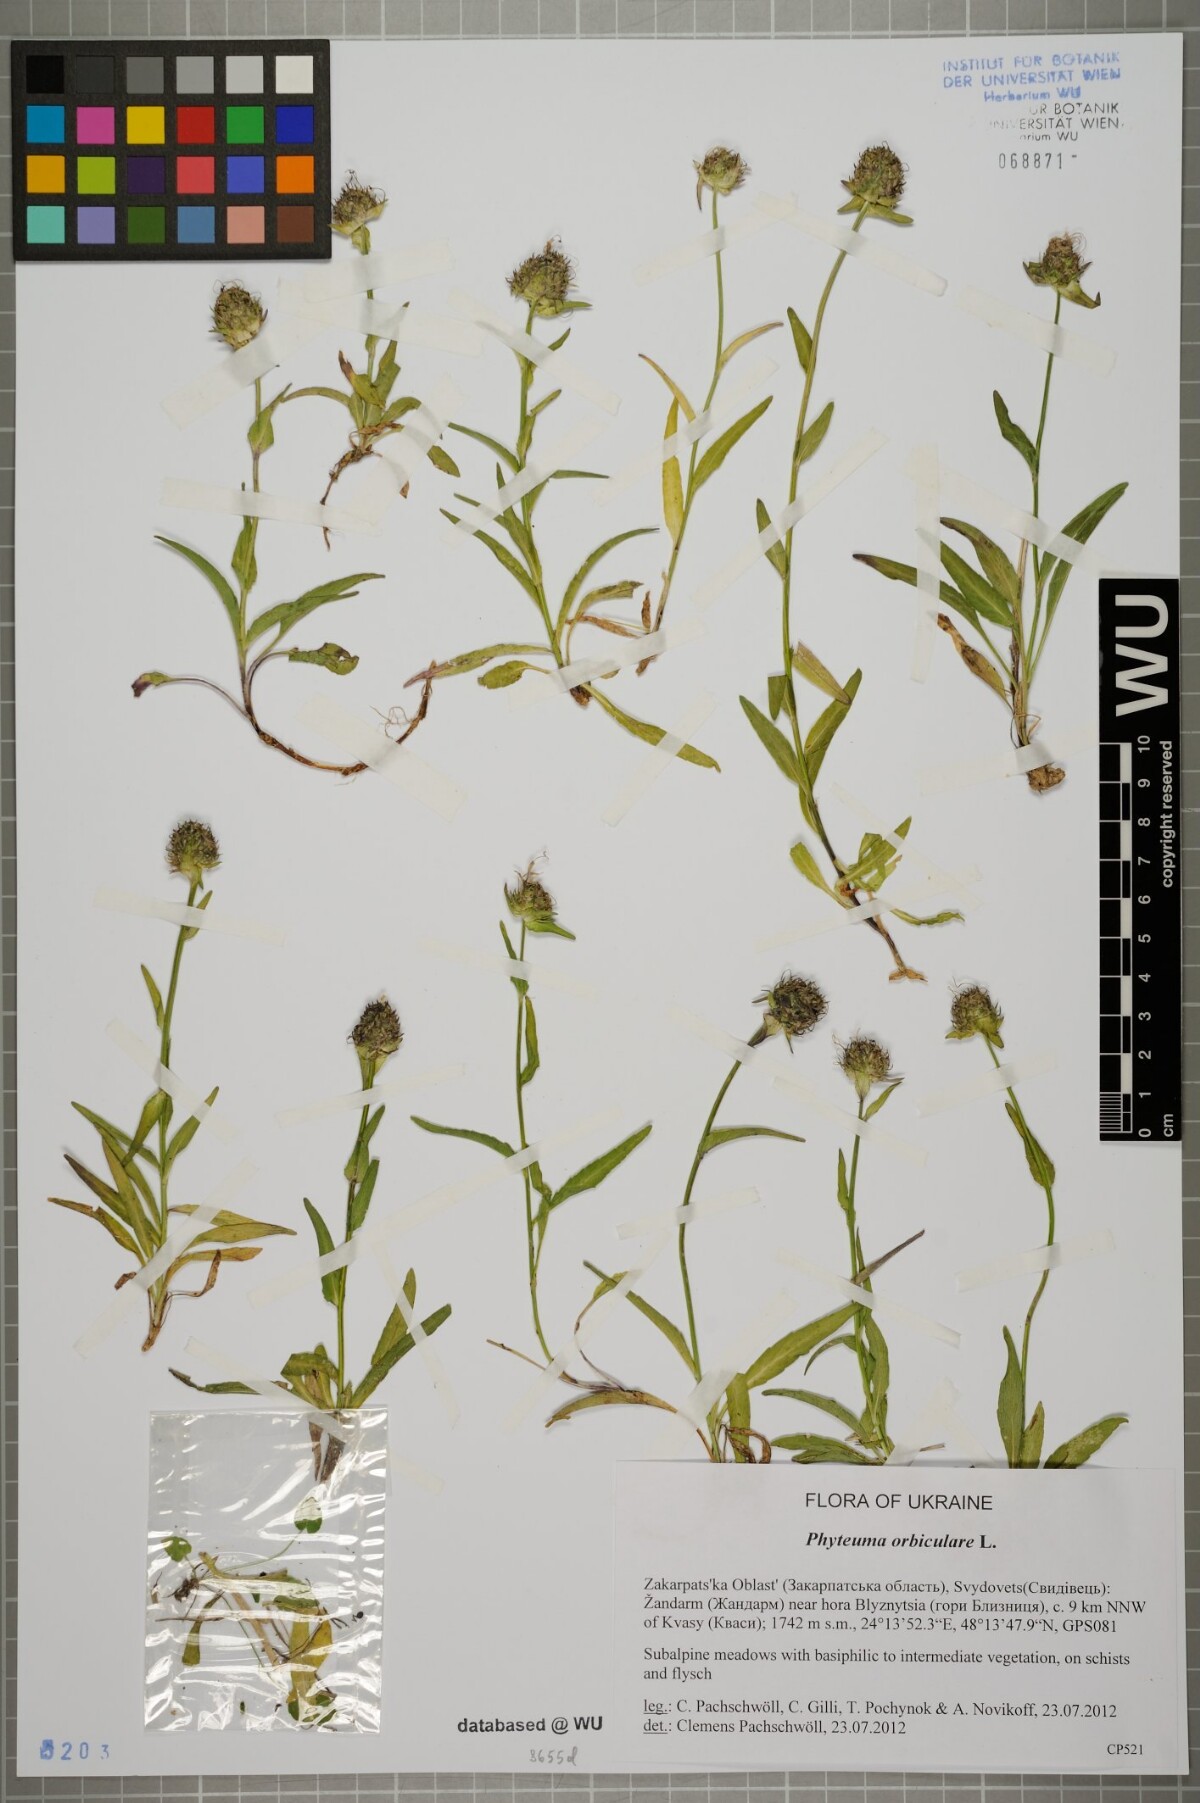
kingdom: Plantae
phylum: Tracheophyta
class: Magnoliopsida
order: Asterales
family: Campanulaceae
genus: Phyteuma
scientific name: Phyteuma orbiculare
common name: Round-headed rampion
